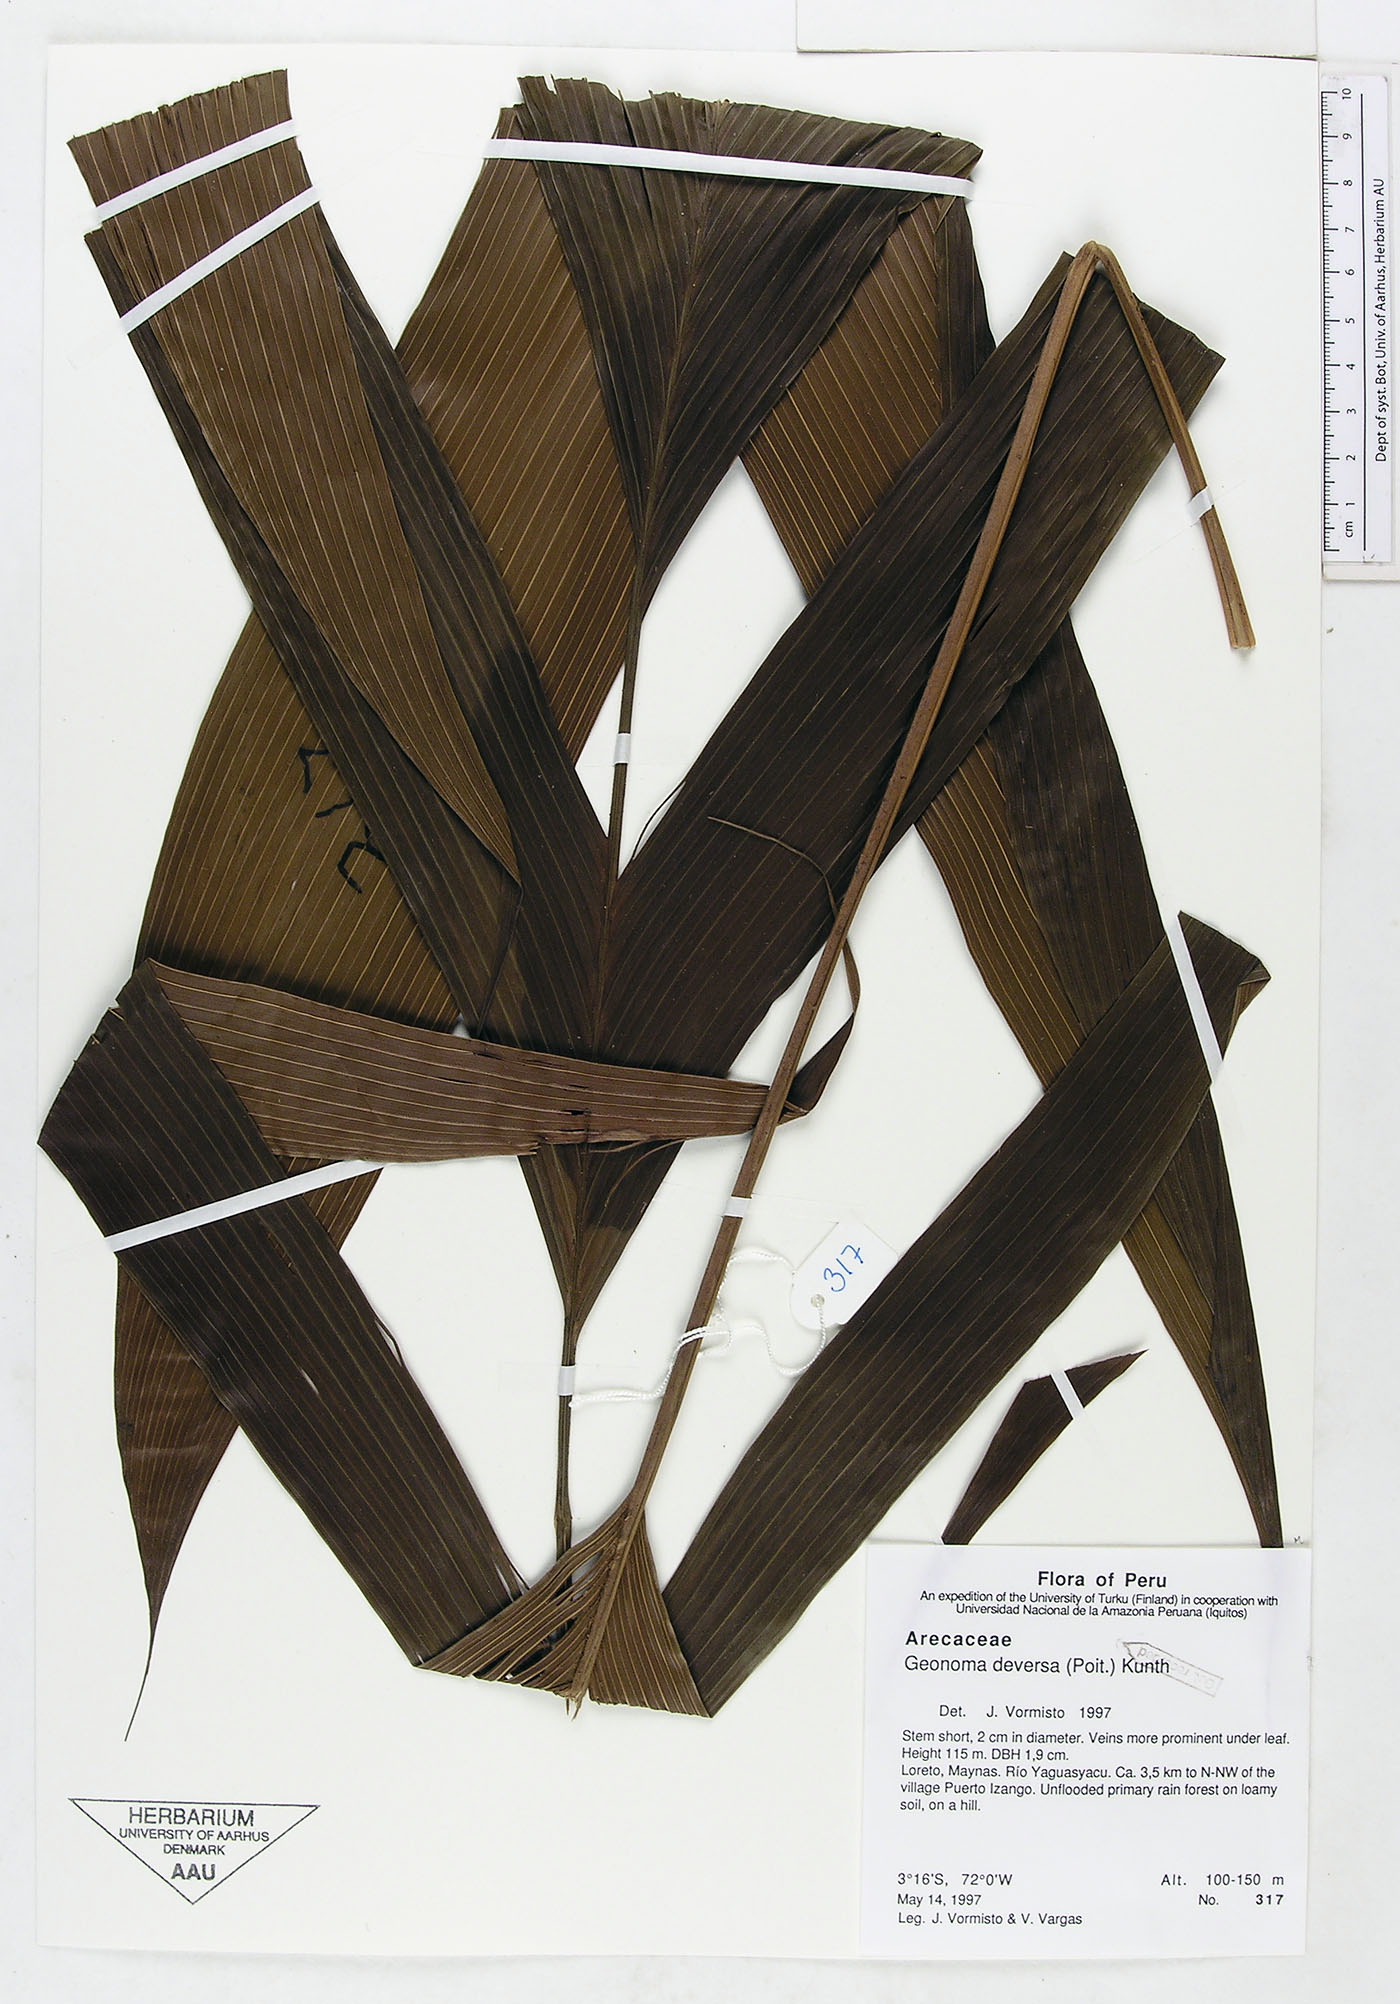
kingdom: Plantae
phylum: Tracheophyta
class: Liliopsida
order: Arecales
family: Arecaceae
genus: Geonoma
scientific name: Geonoma deversa
